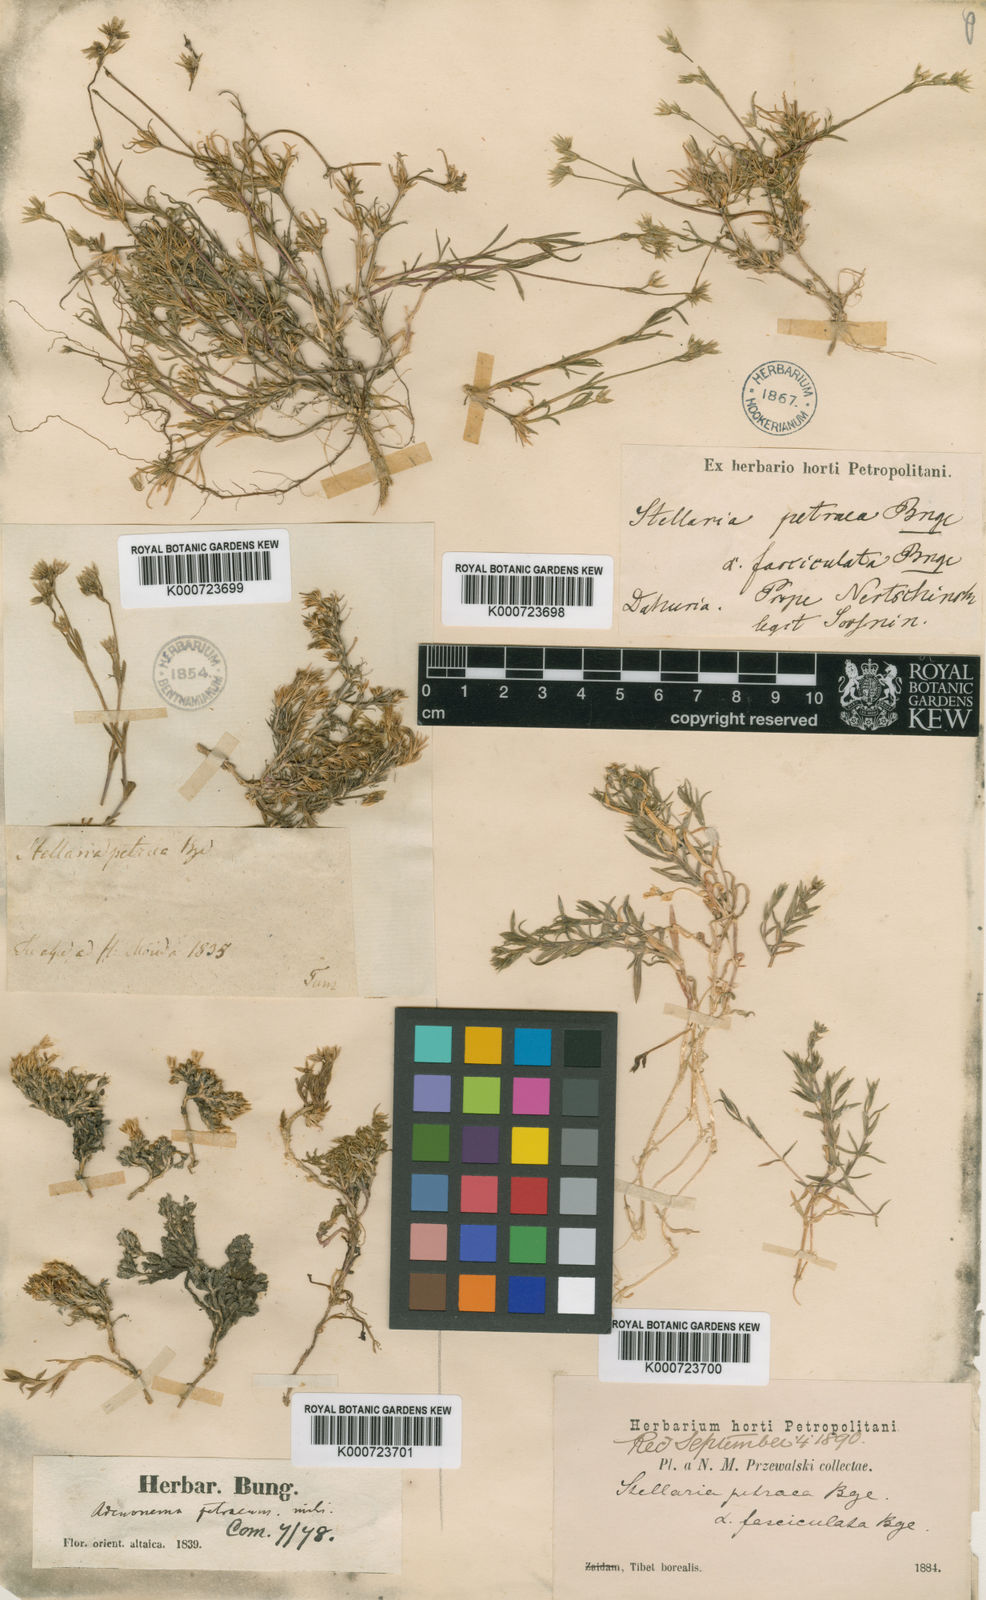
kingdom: Plantae
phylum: Tracheophyta
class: Magnoliopsida
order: Caryophyllales
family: Caryophyllaceae
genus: Adenonema
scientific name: Adenonema petraeum
